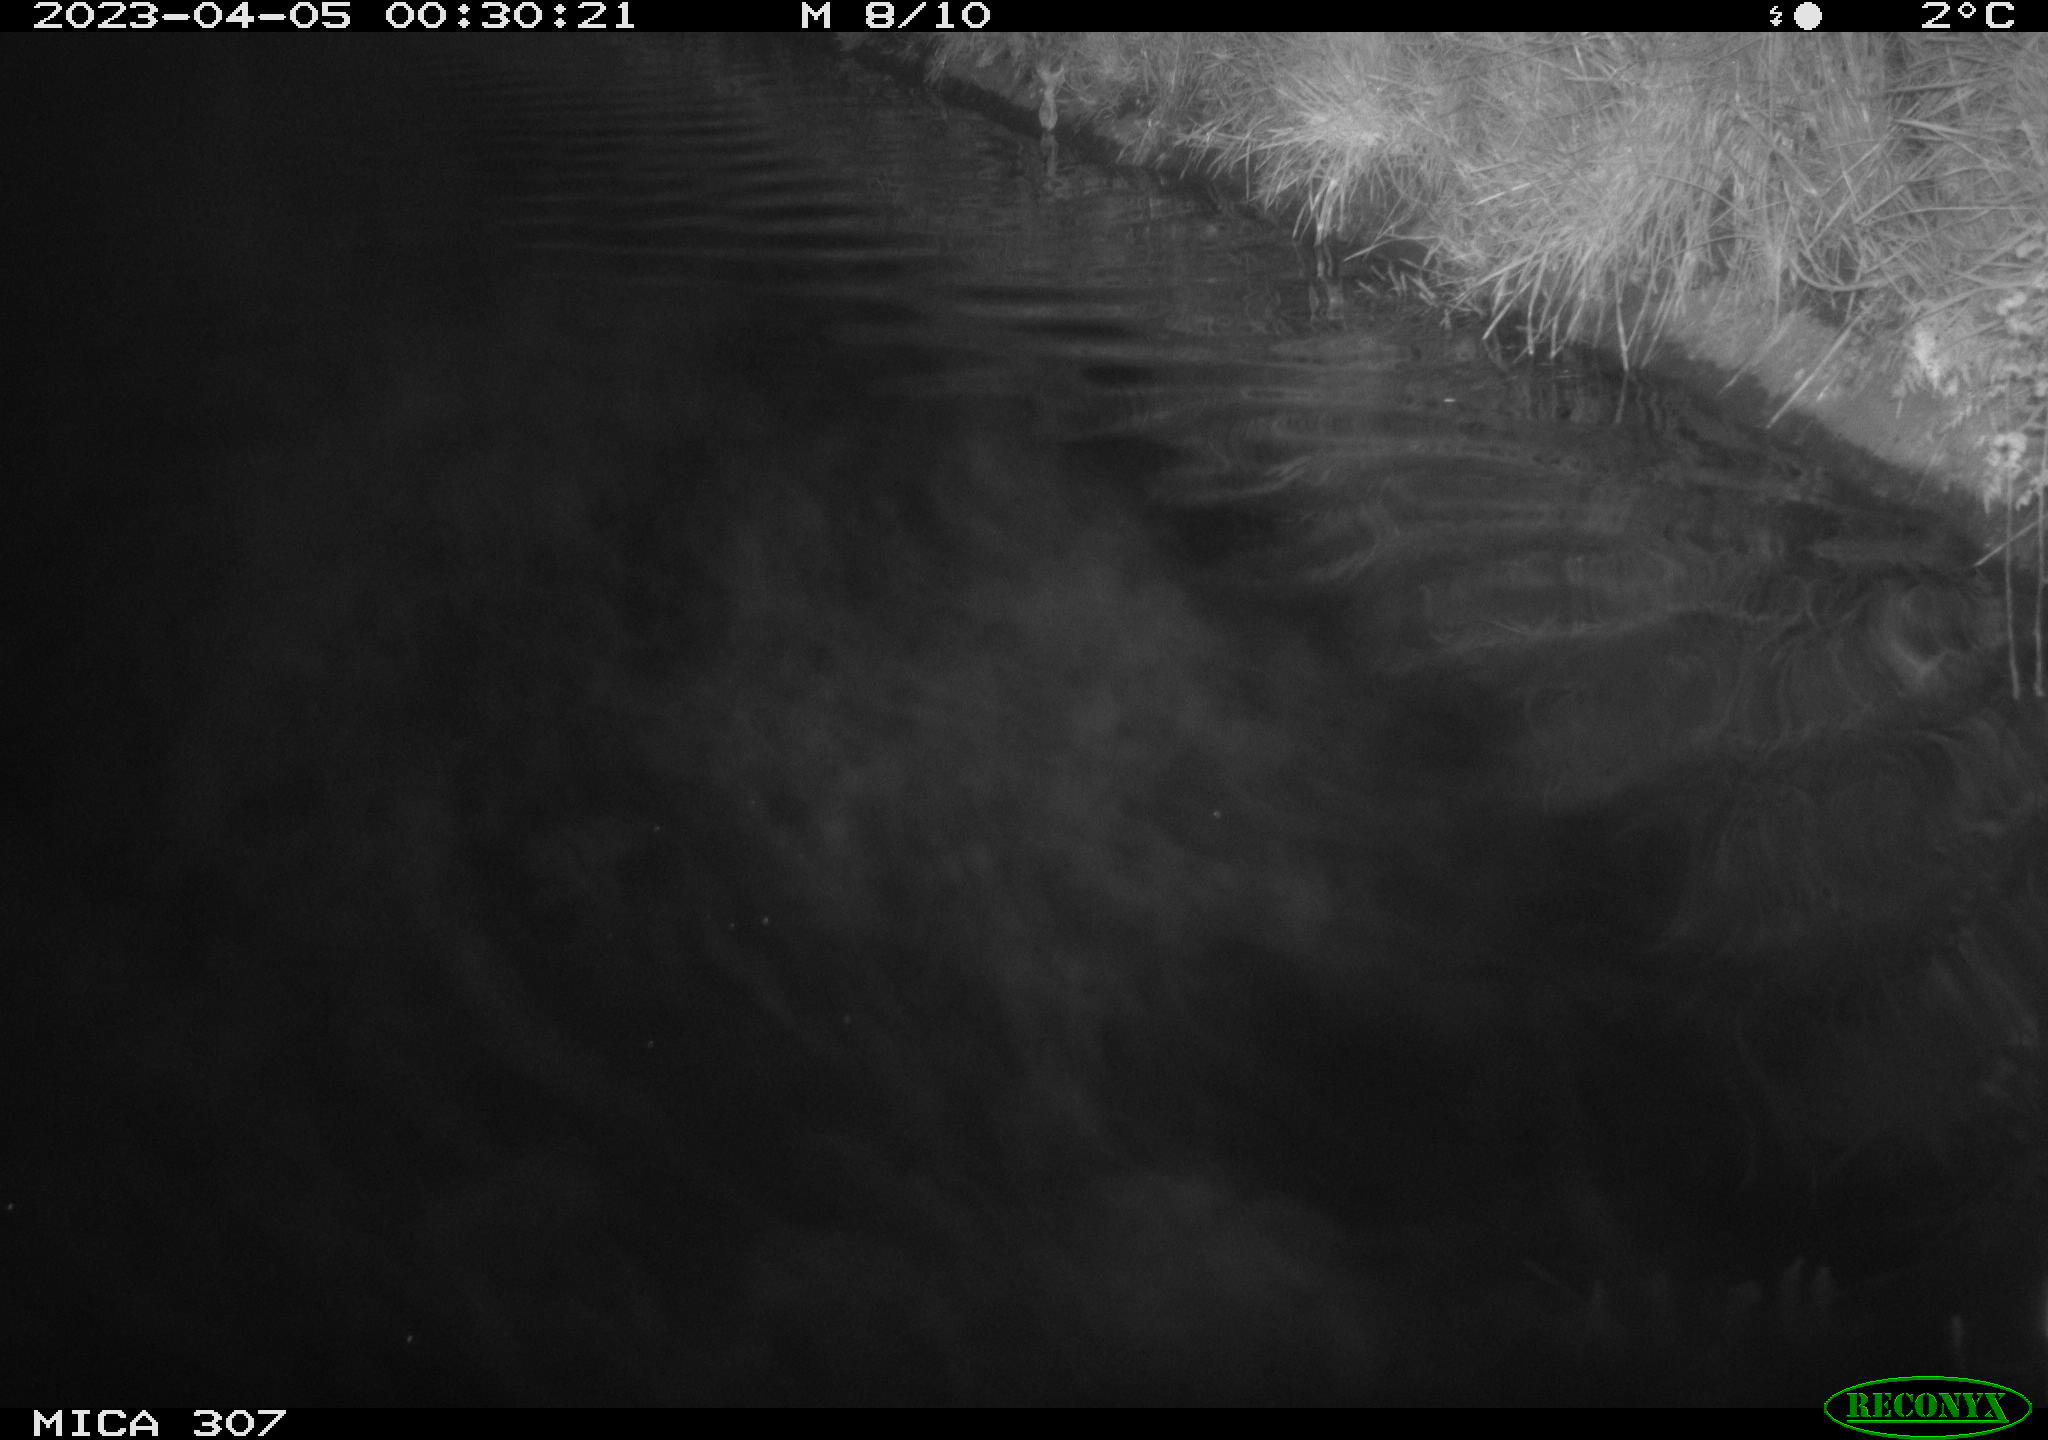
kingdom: Animalia
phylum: Chordata
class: Aves
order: Anseriformes
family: Anatidae
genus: Anas
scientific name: Anas
